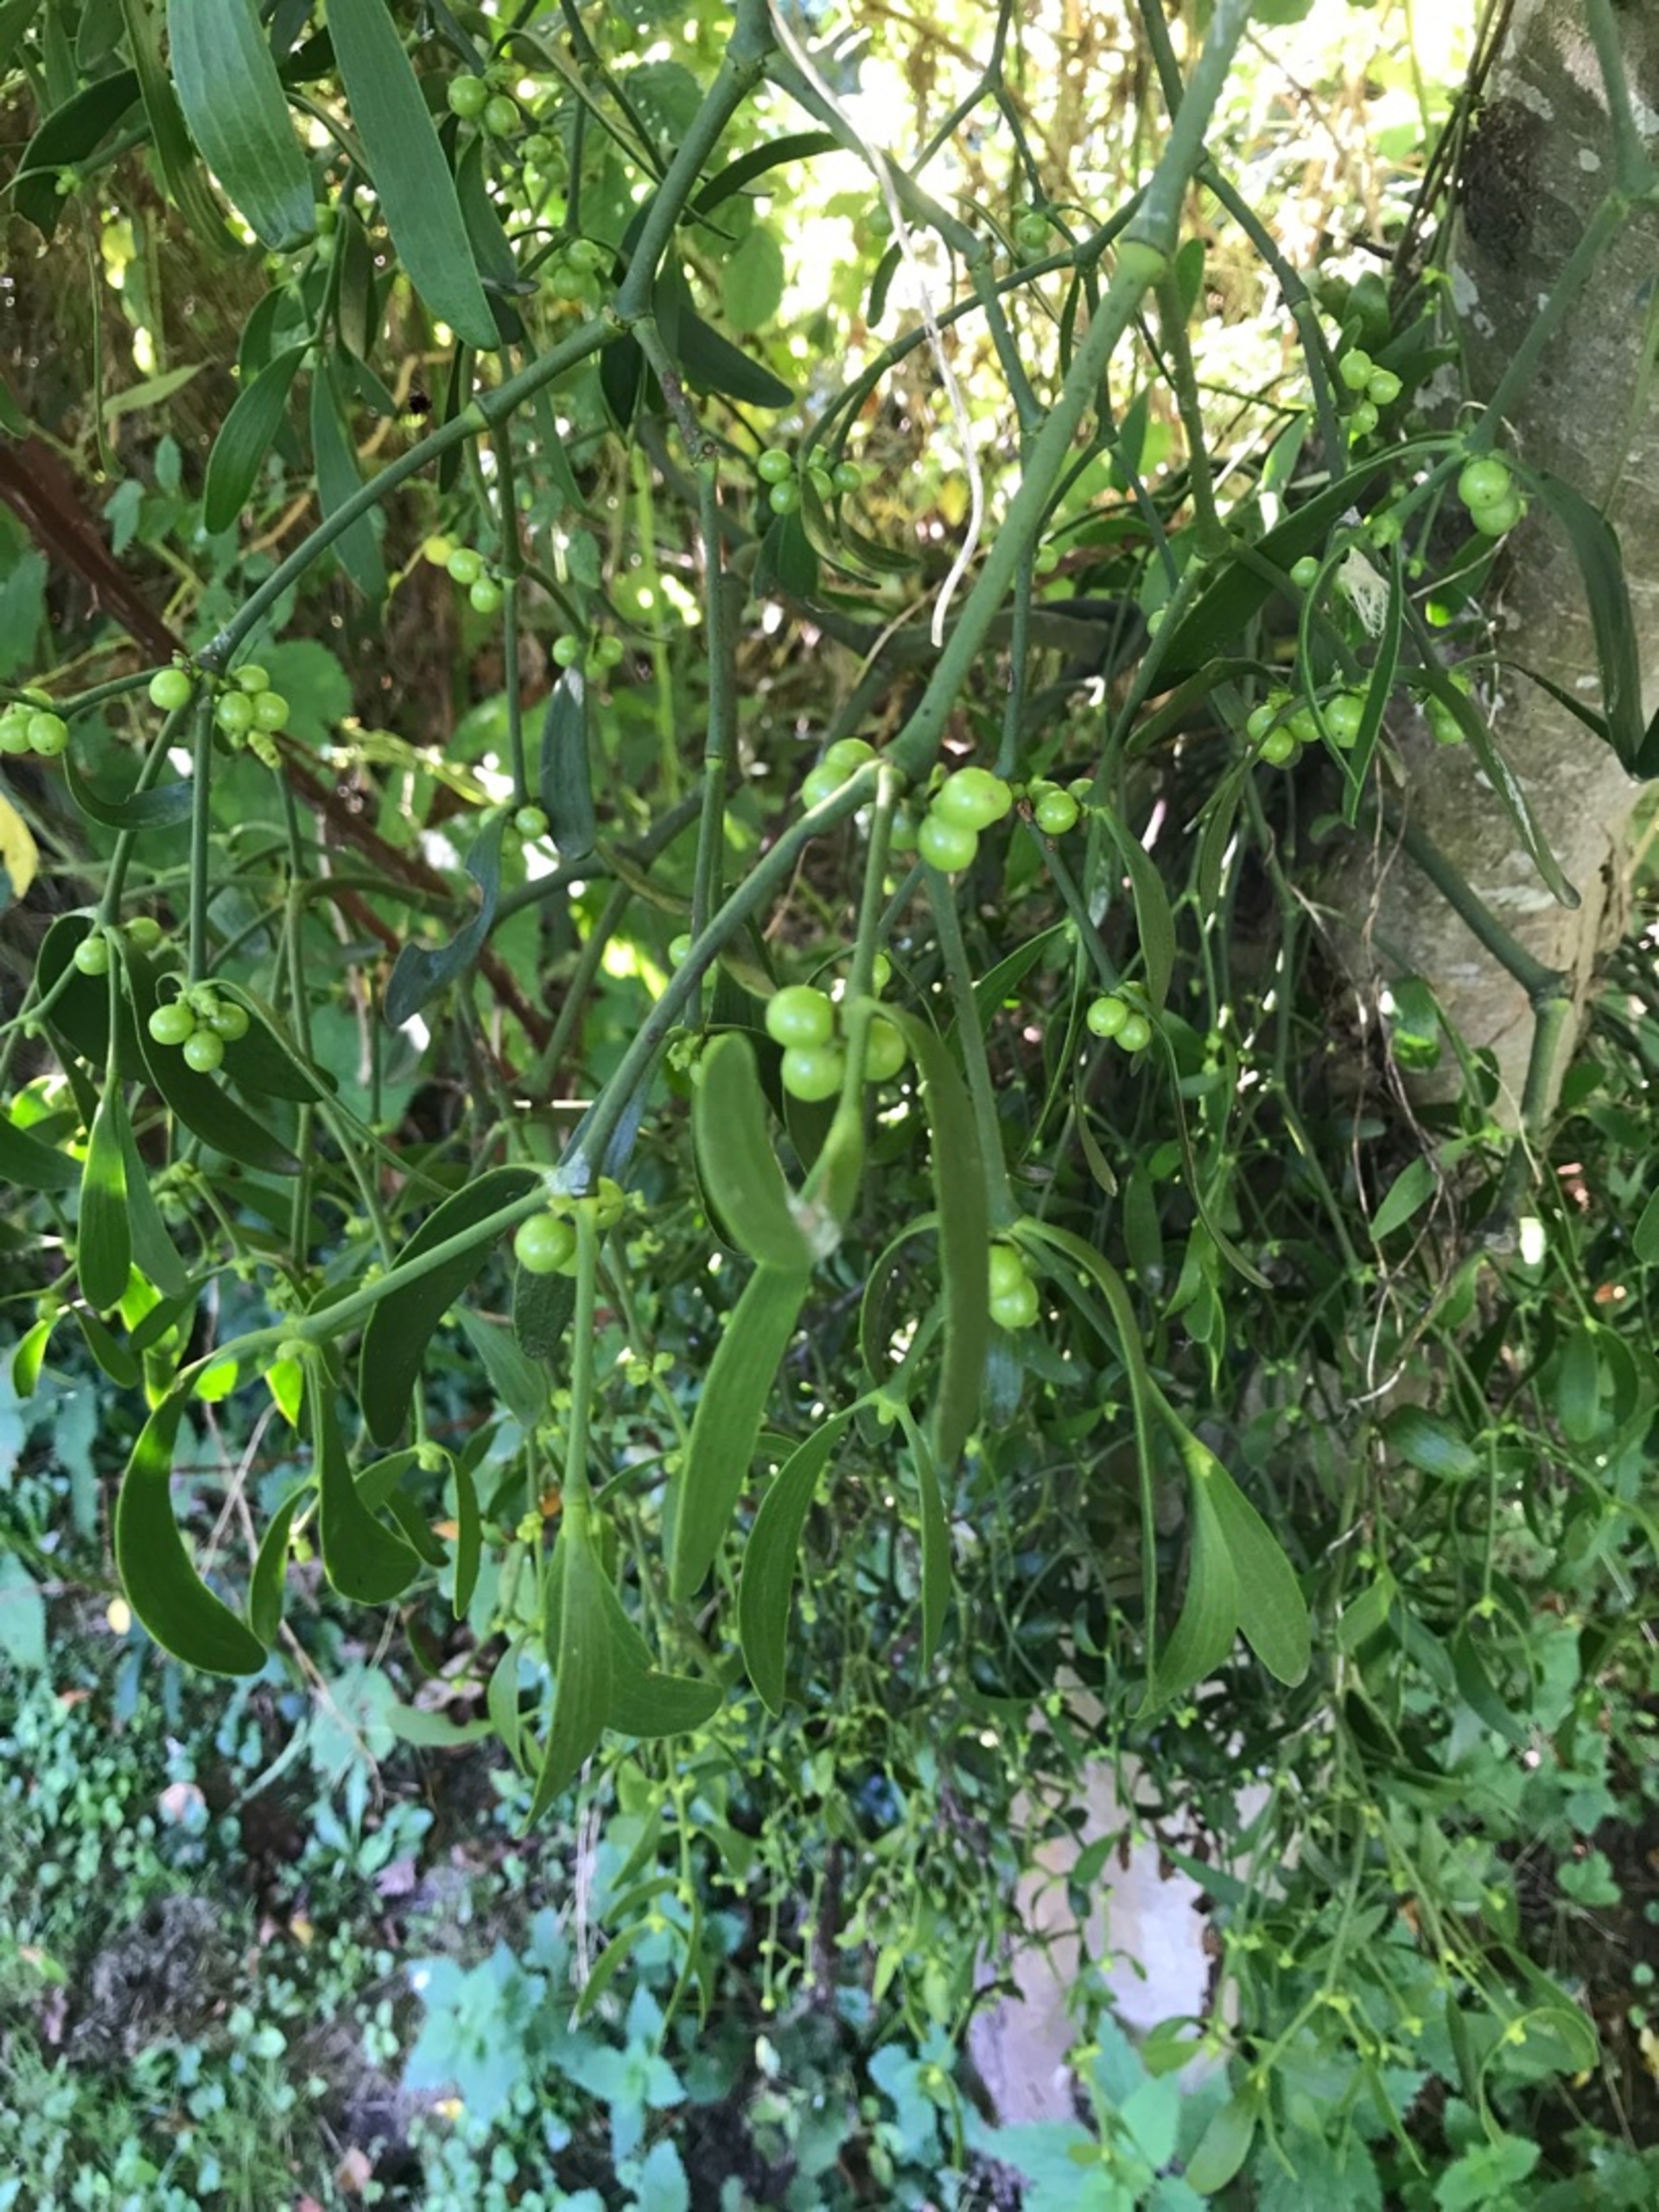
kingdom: Plantae
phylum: Tracheophyta
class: Magnoliopsida
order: Santalales
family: Viscaceae
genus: Viscum
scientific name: Viscum album
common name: Mistelten
